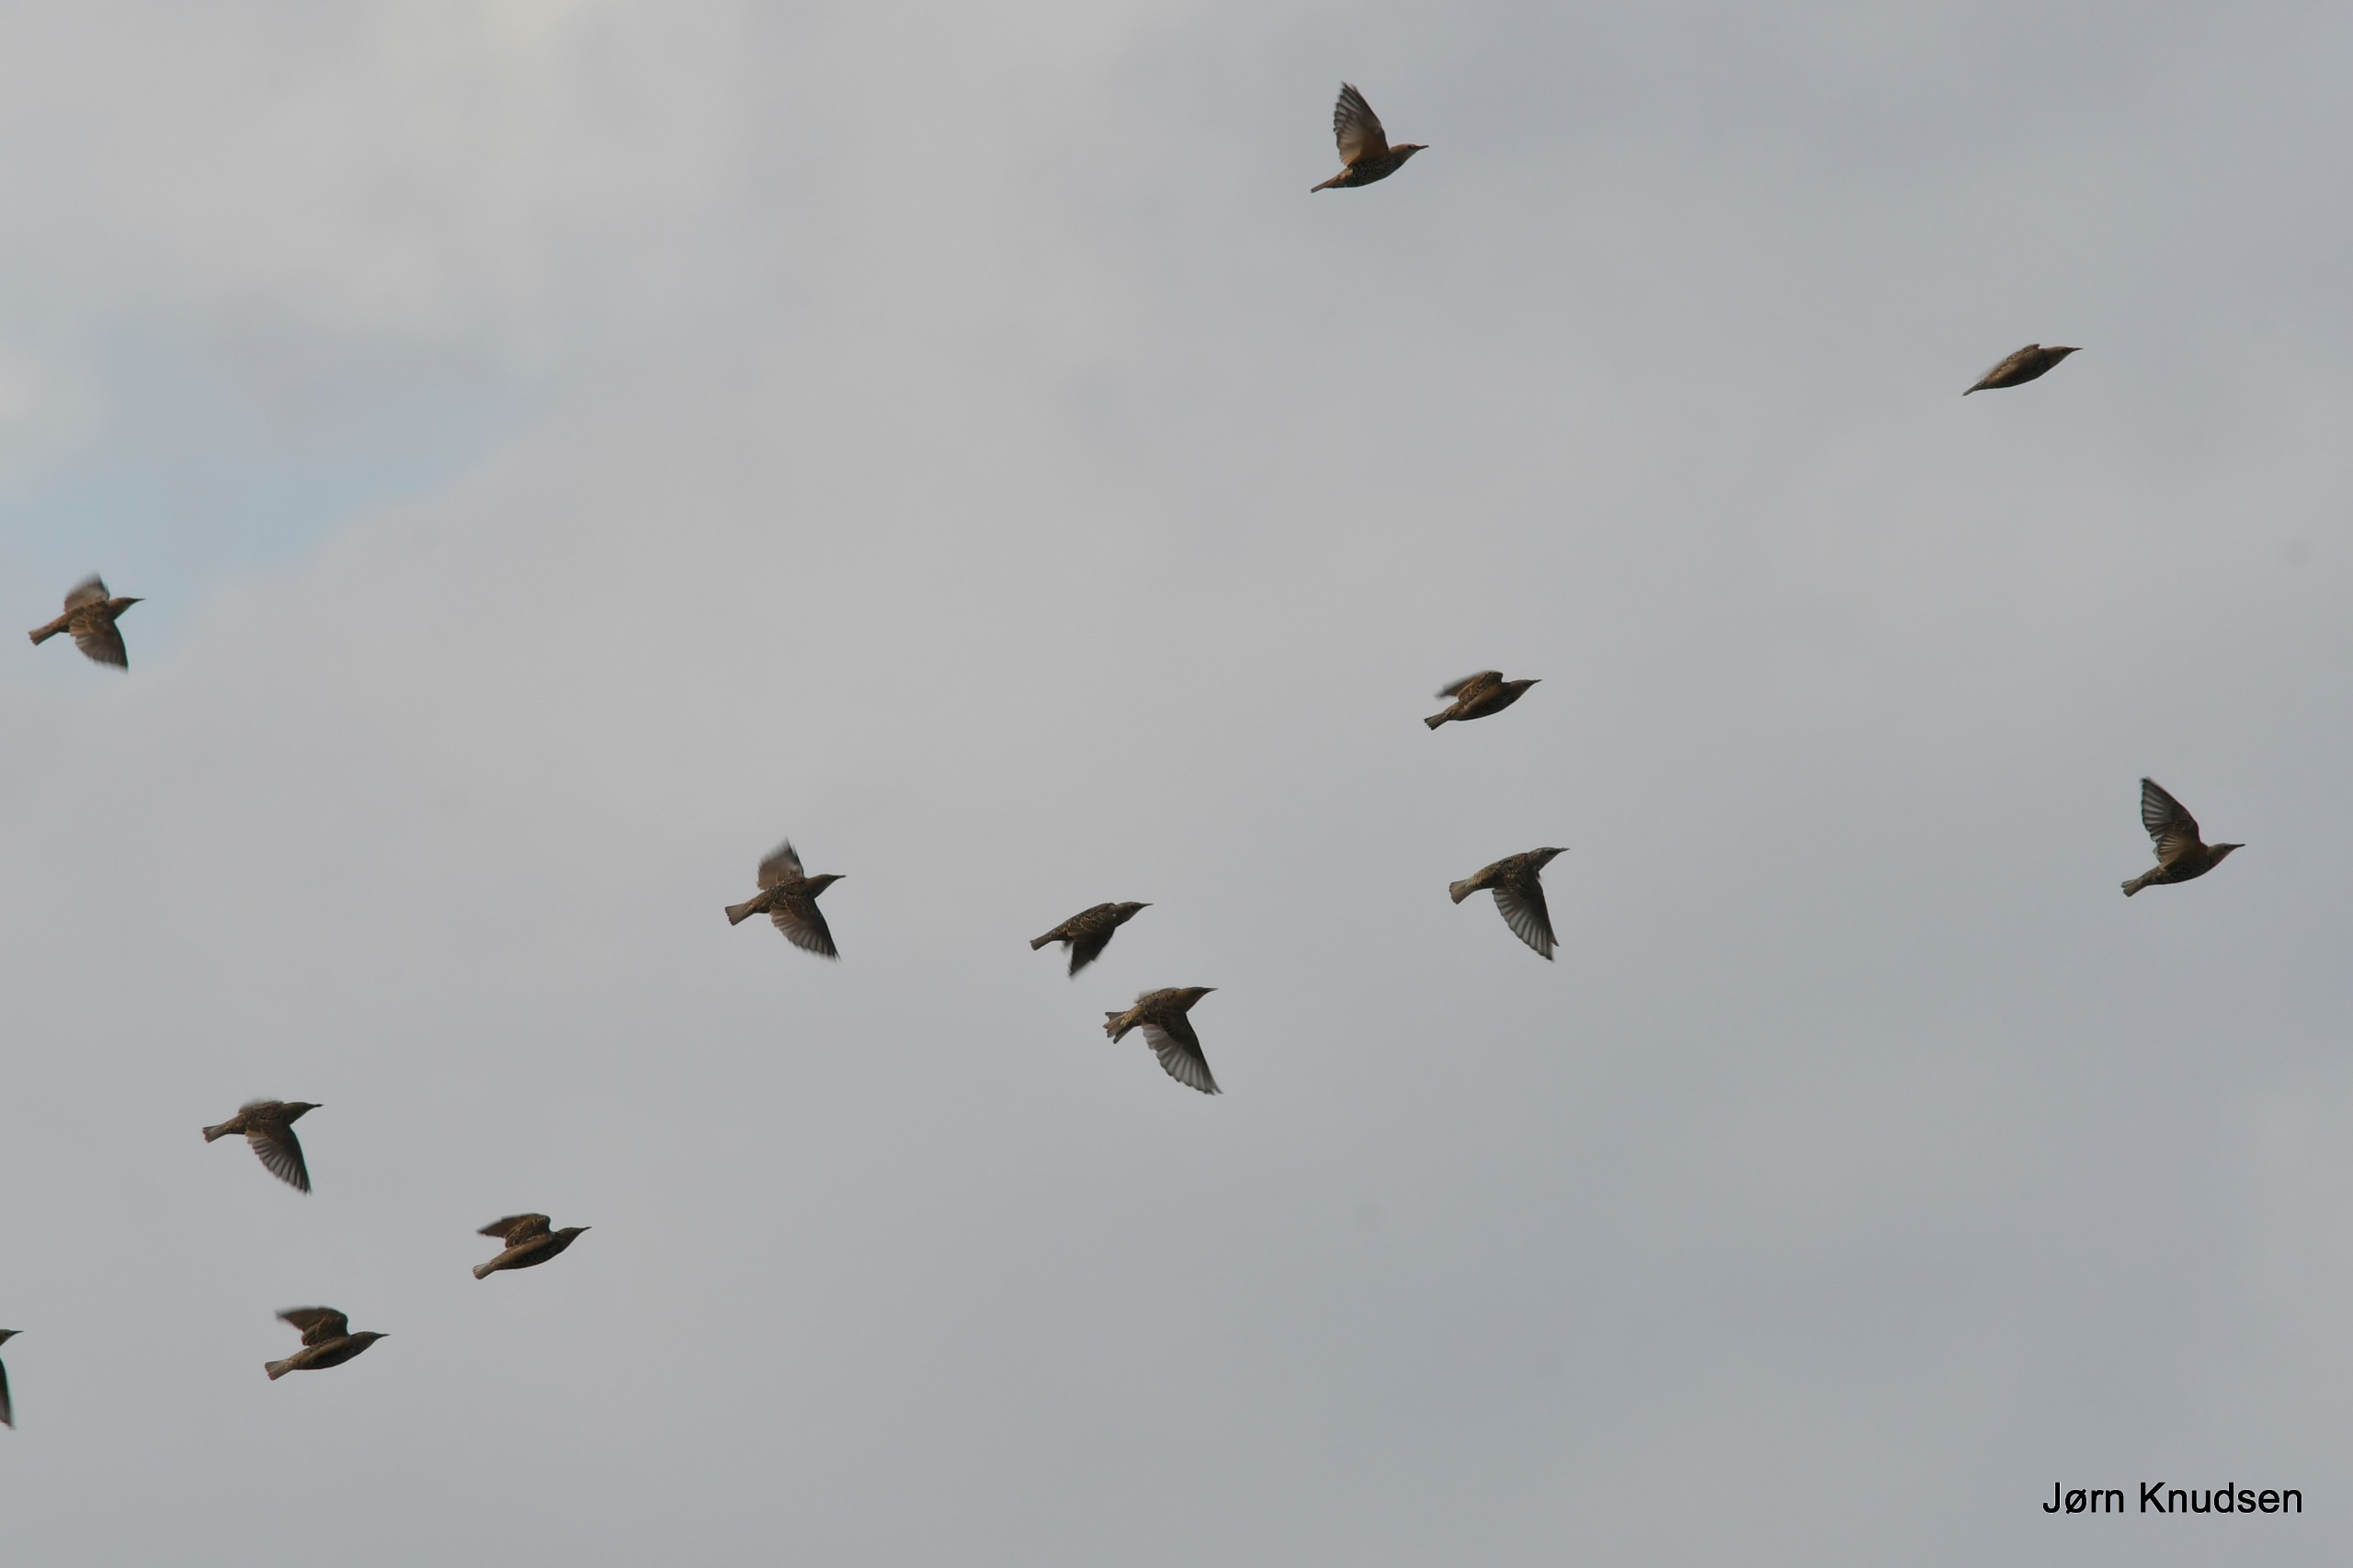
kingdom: Animalia
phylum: Chordata
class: Aves
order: Passeriformes
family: Sturnidae
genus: Sturnus
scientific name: Sturnus vulgaris
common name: Stær
